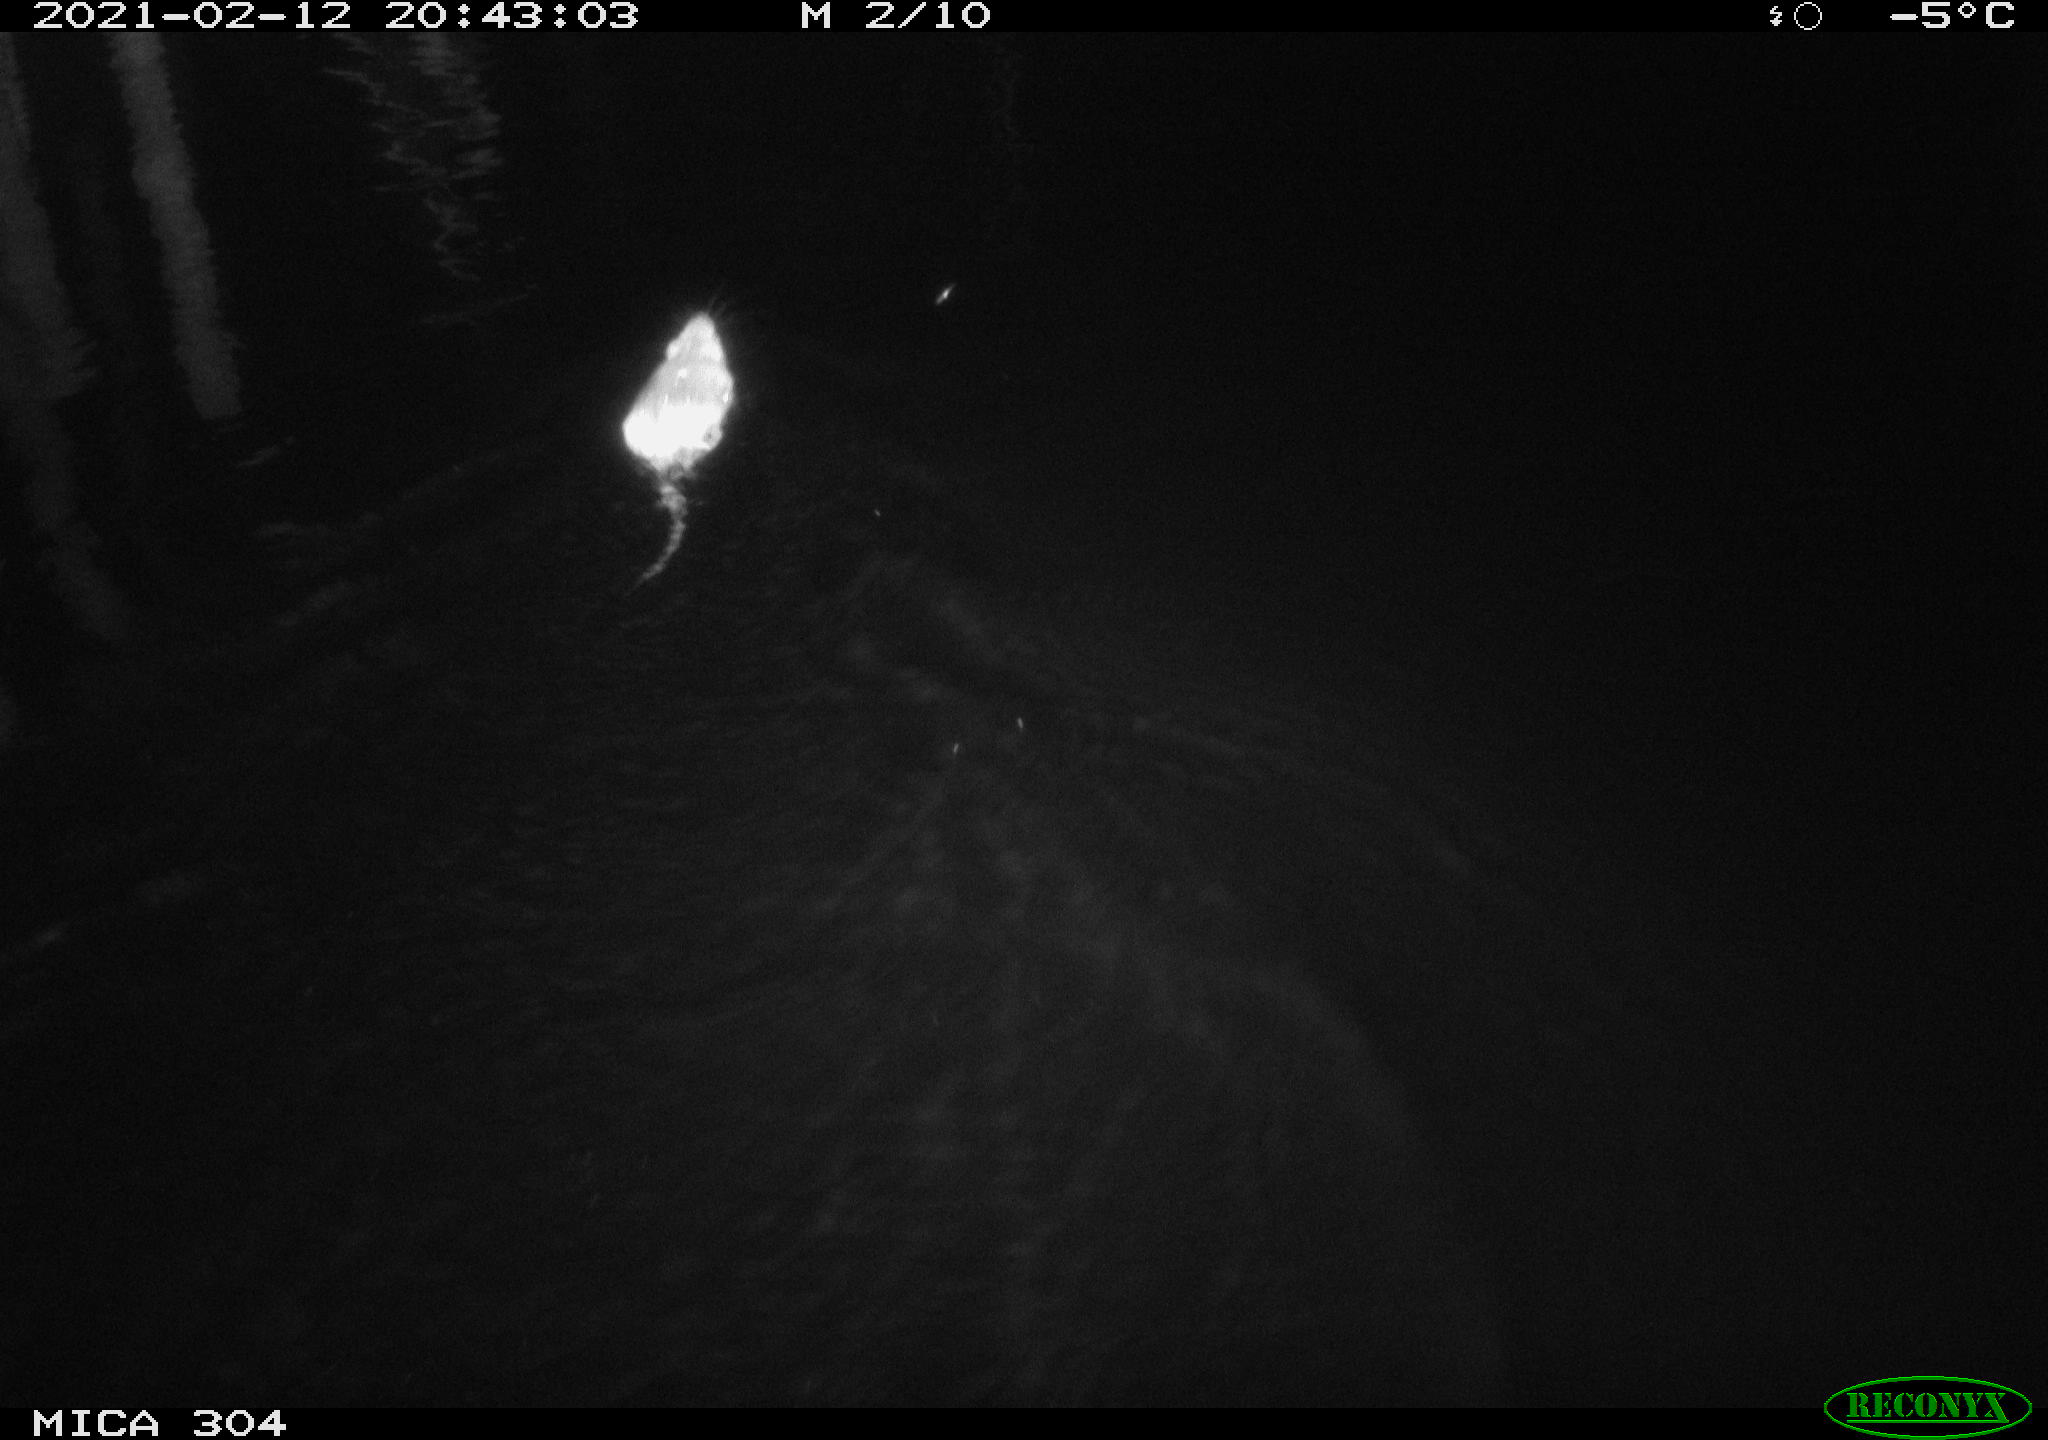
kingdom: Animalia
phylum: Chordata
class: Mammalia
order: Rodentia
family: Muridae
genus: Rattus
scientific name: Rattus norvegicus
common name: Brown rat
